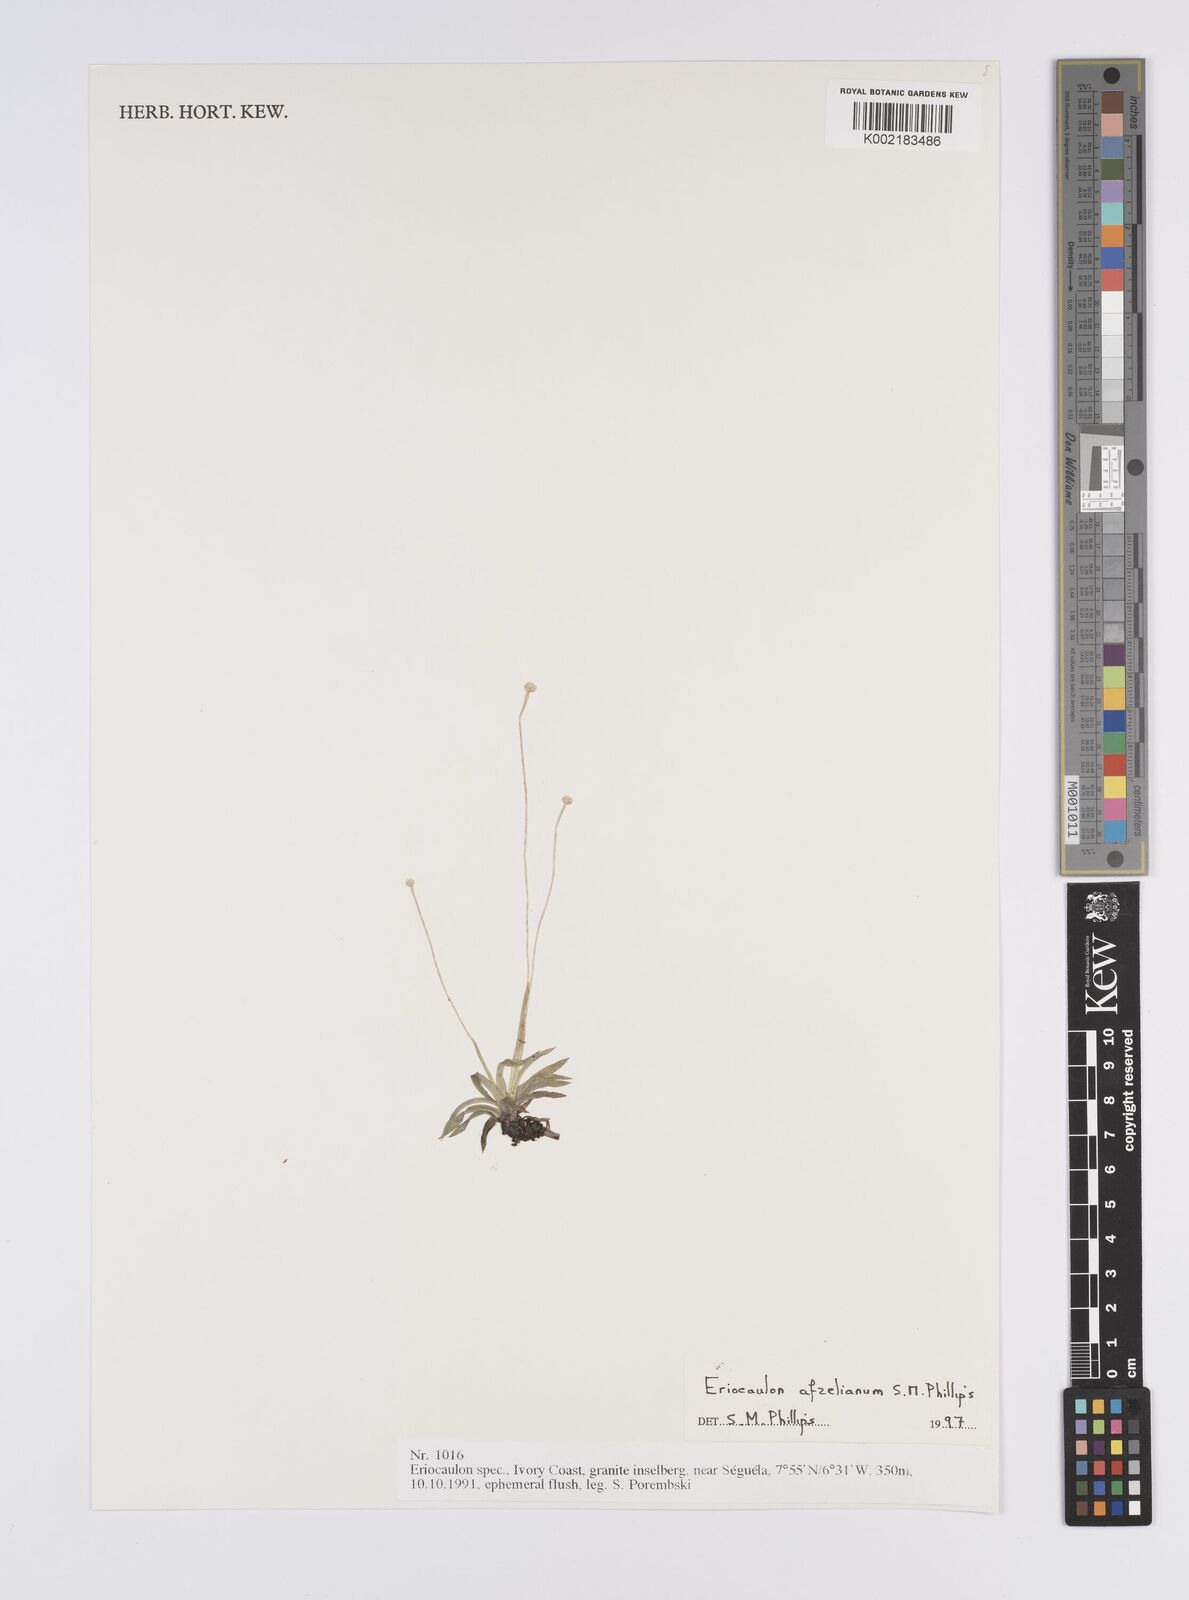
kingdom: Plantae
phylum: Tracheophyta
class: Liliopsida
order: Poales
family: Eriocaulaceae
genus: Eriocaulon
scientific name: Eriocaulon afzelianum
